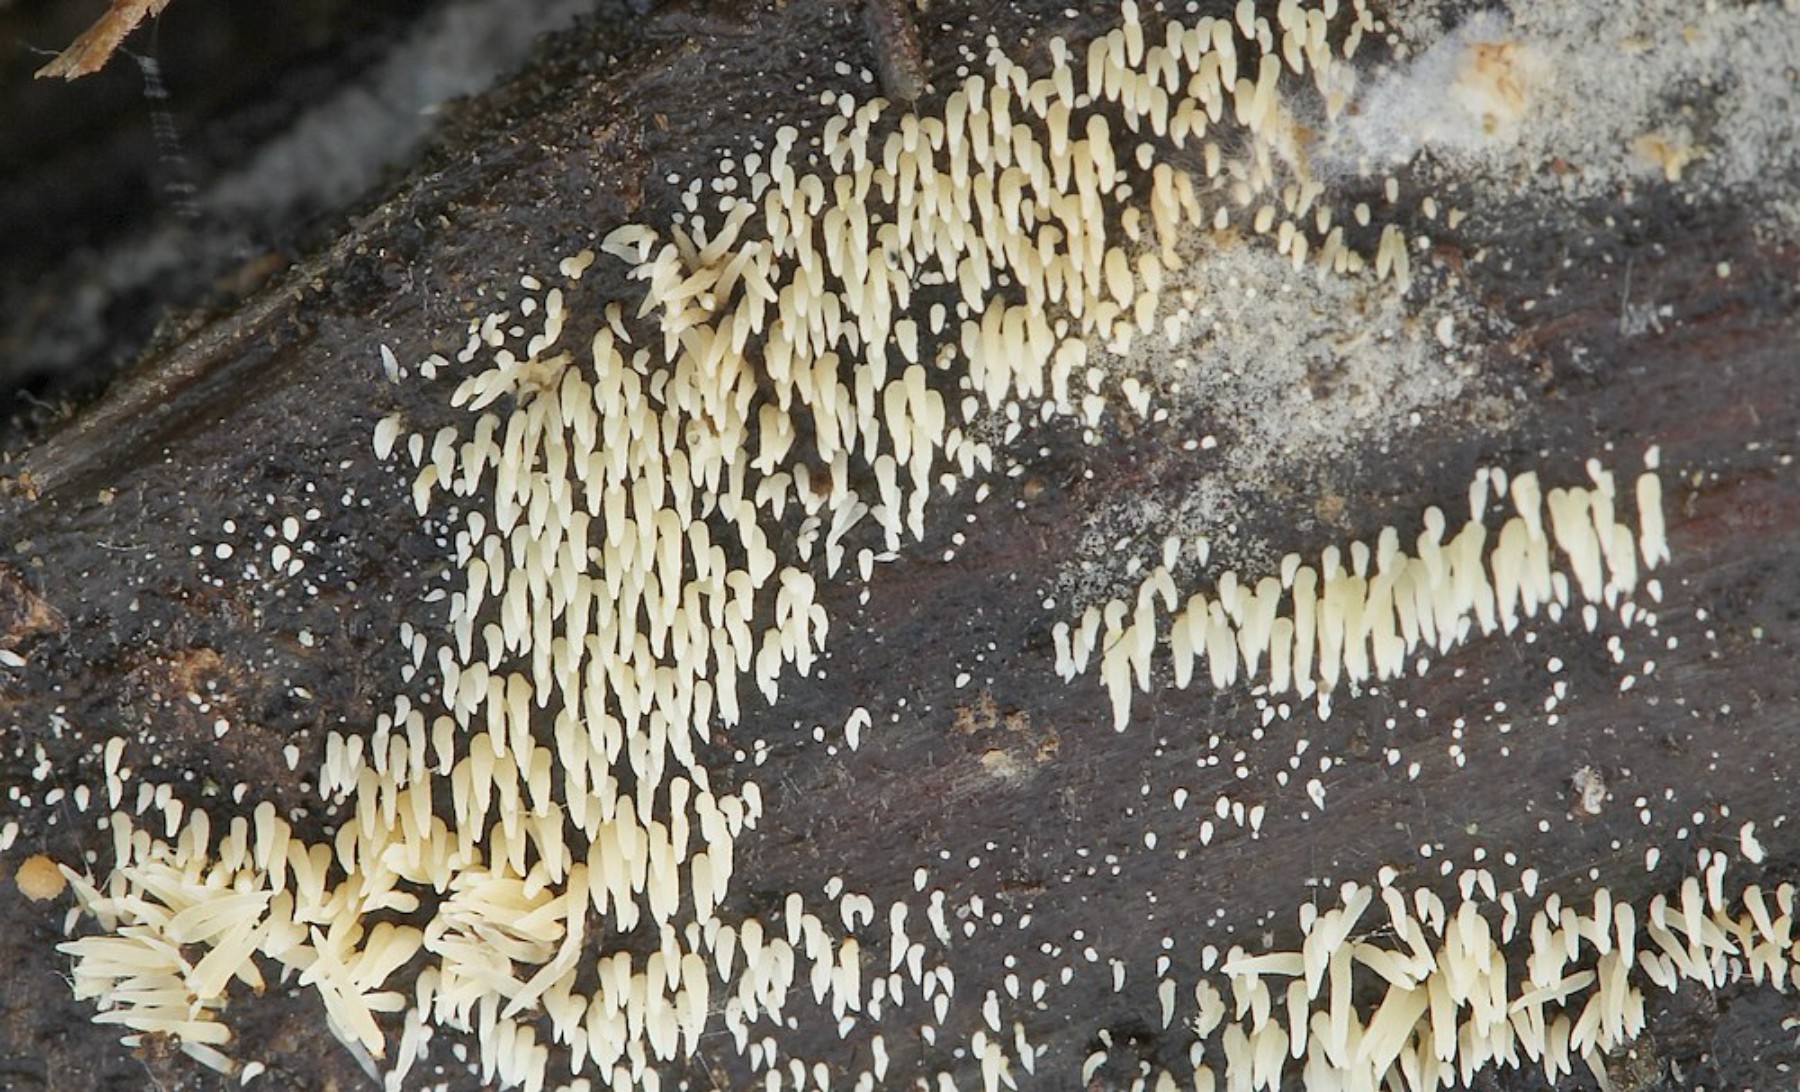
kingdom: Fungi
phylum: Basidiomycota
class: Agaricomycetes
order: Agaricales
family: Clavariaceae
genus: Mucronella
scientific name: Mucronella flava
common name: gul hængepig
